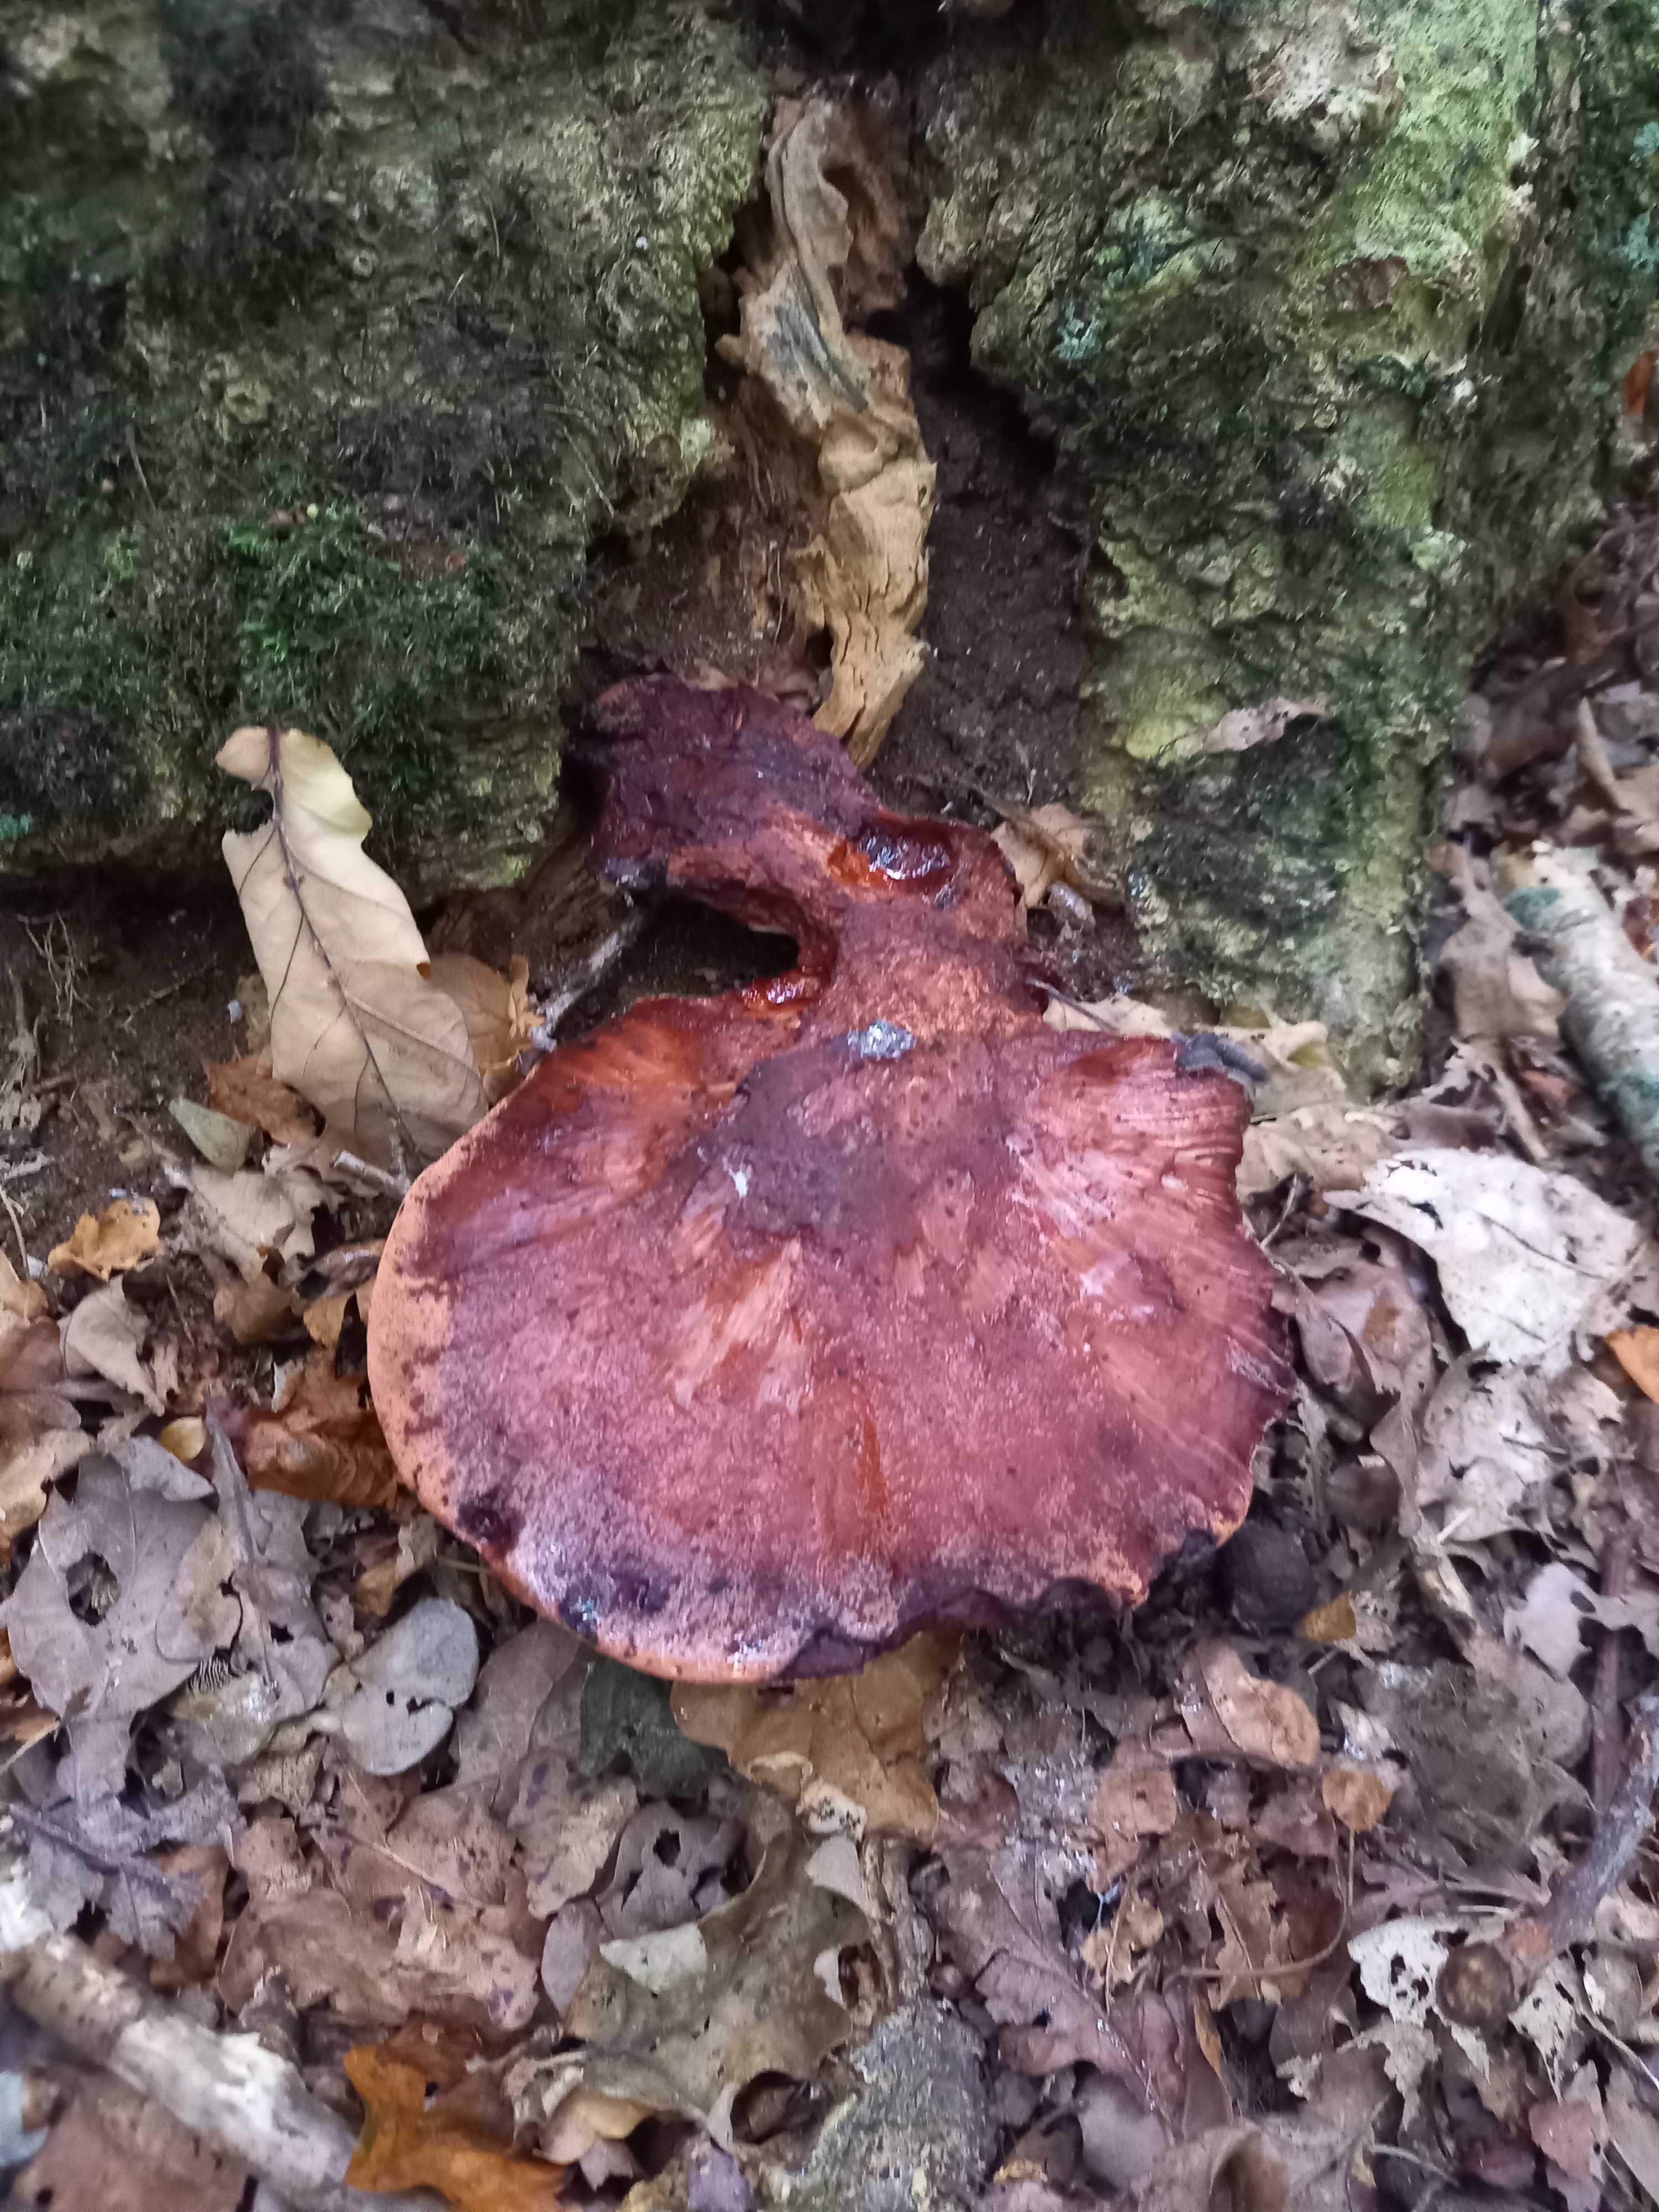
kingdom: Fungi
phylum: Basidiomycota
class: Agaricomycetes
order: Agaricales
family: Fistulinaceae
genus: Fistulina
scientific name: Fistulina hepatica
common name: oksetunge
